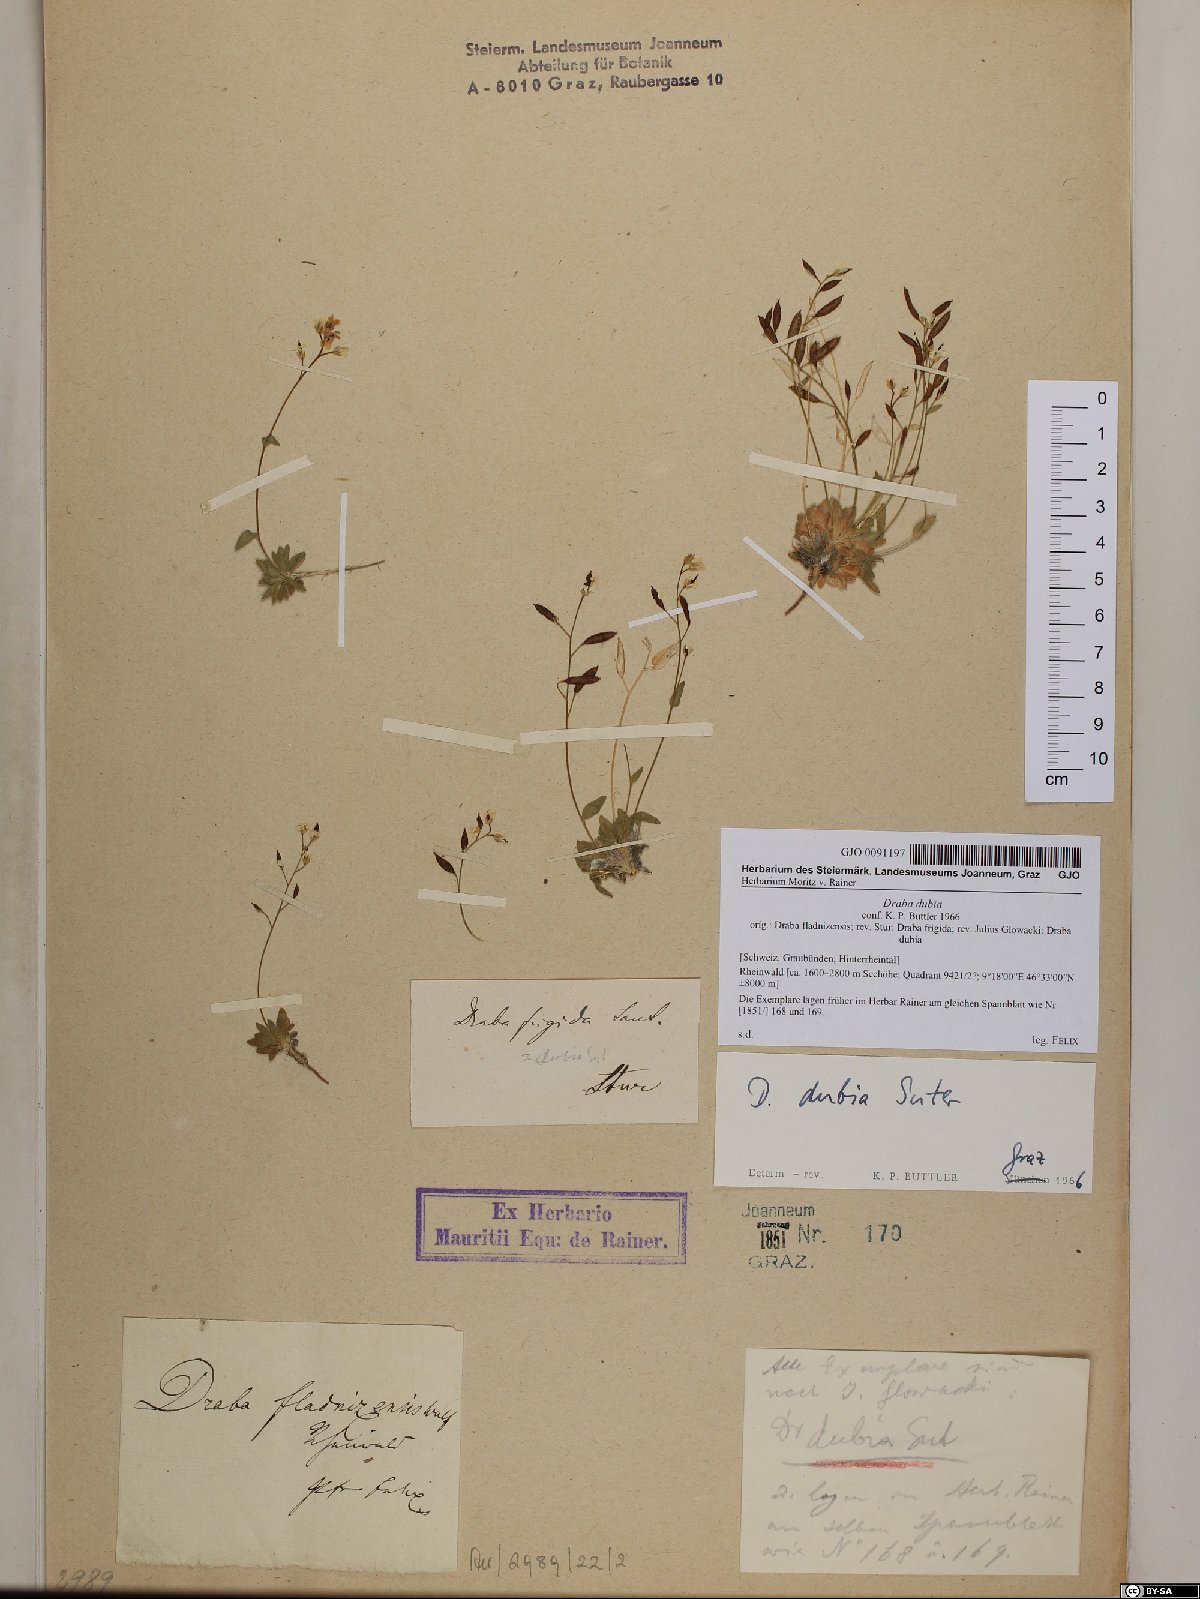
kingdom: Plantae
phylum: Tracheophyta
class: Magnoliopsida
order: Brassicales
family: Brassicaceae
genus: Draba
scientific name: Draba dubia
